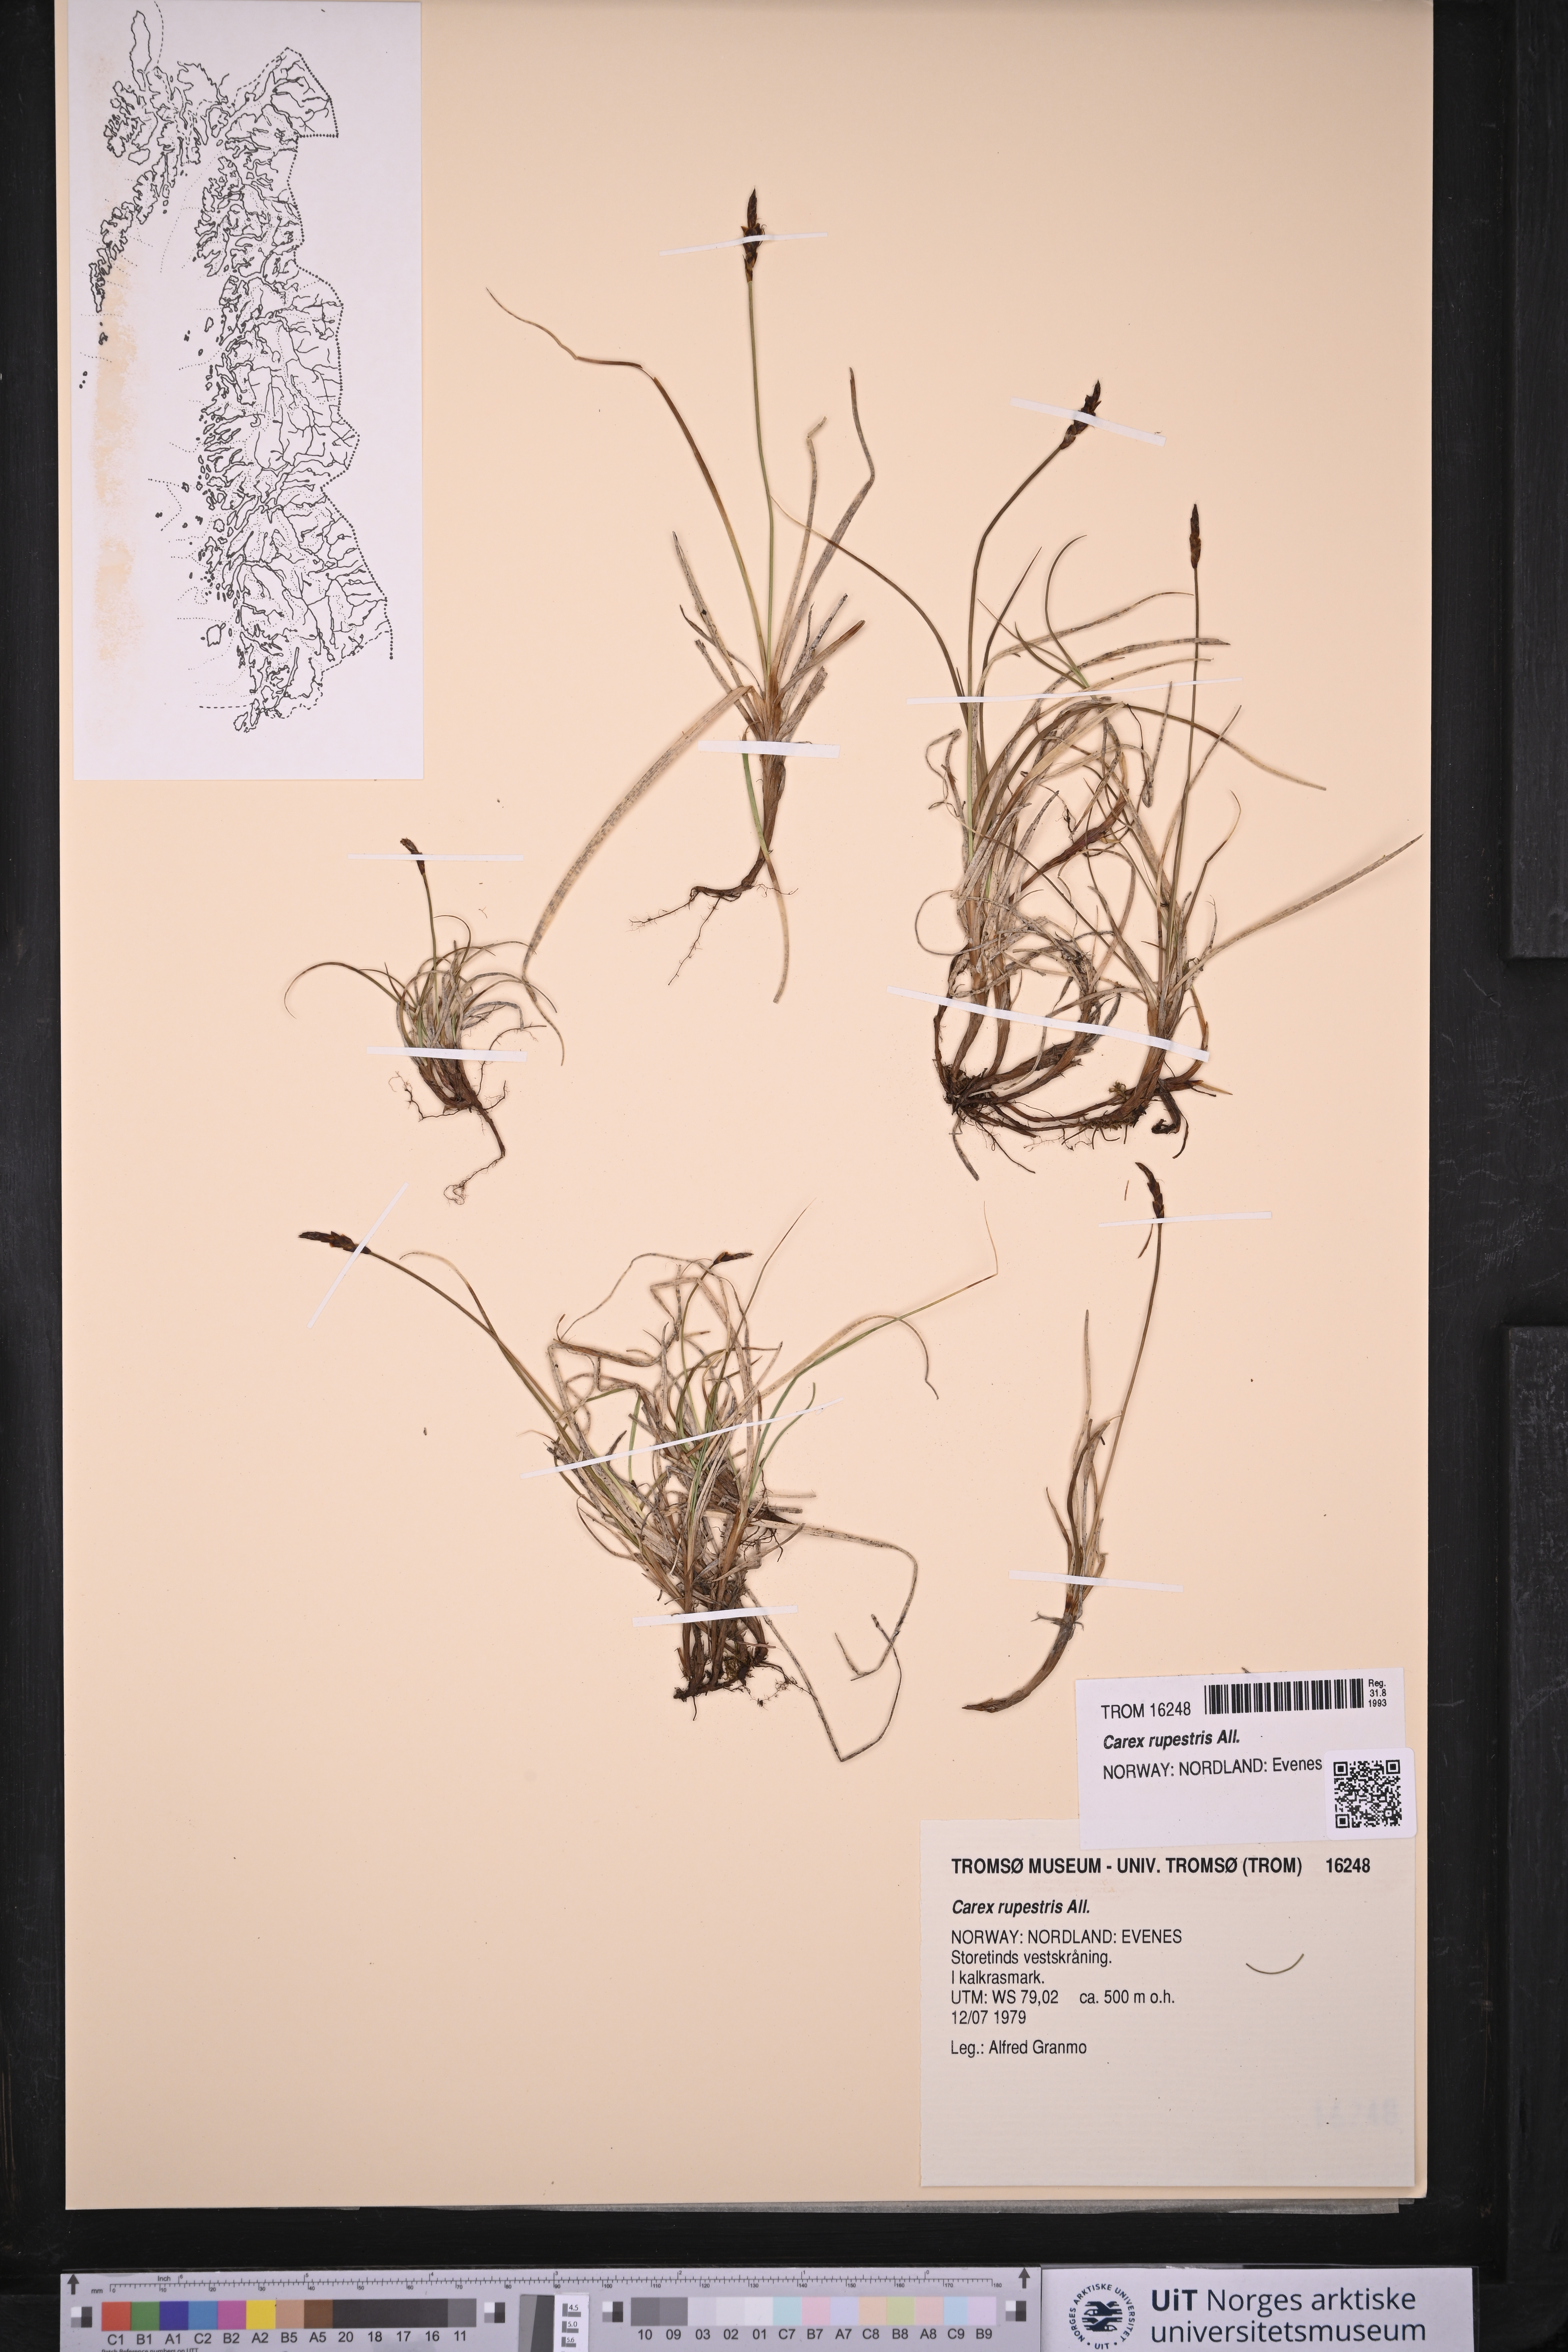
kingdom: Plantae
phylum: Tracheophyta
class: Liliopsida
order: Poales
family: Cyperaceae
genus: Carex
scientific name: Carex rupestris
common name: Rock sedge
